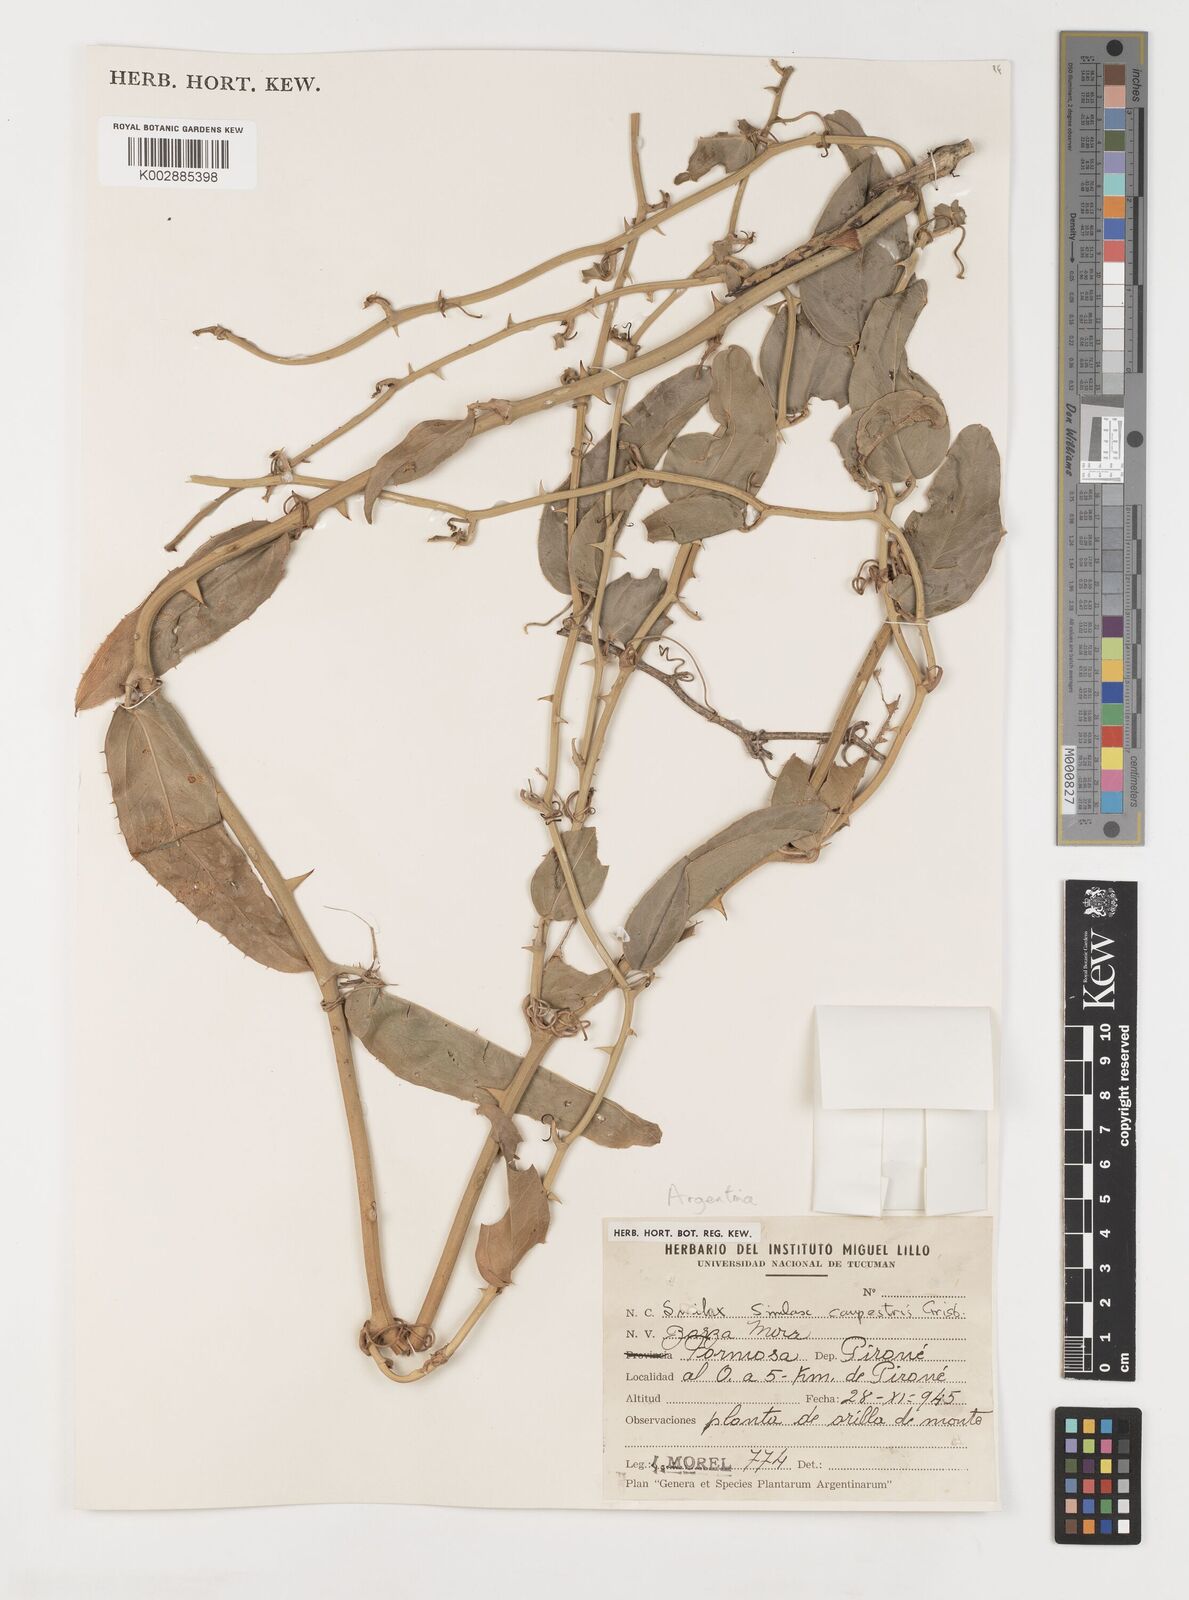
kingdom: Plantae
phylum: Tracheophyta
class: Liliopsida
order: Liliales
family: Smilacaceae
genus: Smilax
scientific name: Smilax campestris
